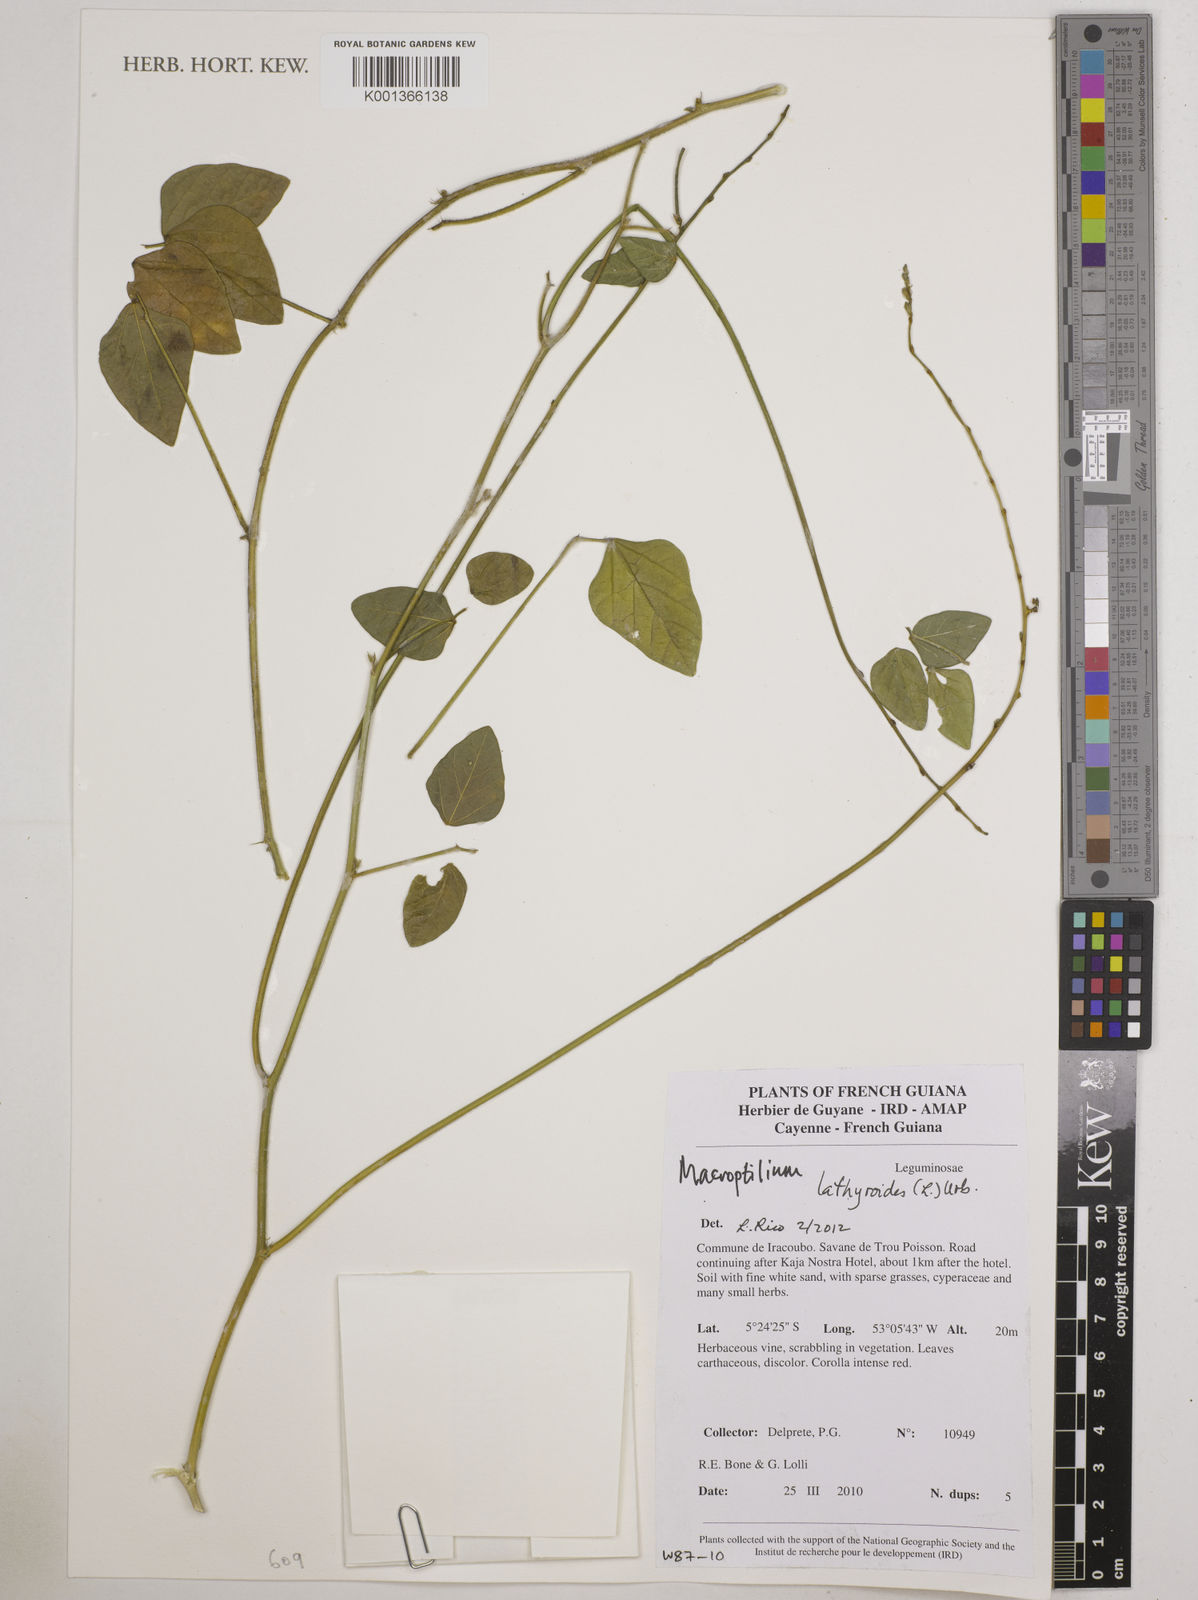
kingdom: Plantae
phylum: Tracheophyta
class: Magnoliopsida
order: Fabales
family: Fabaceae
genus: Macroptilium
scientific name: Macroptilium lathyroides
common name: Wild bushbean
